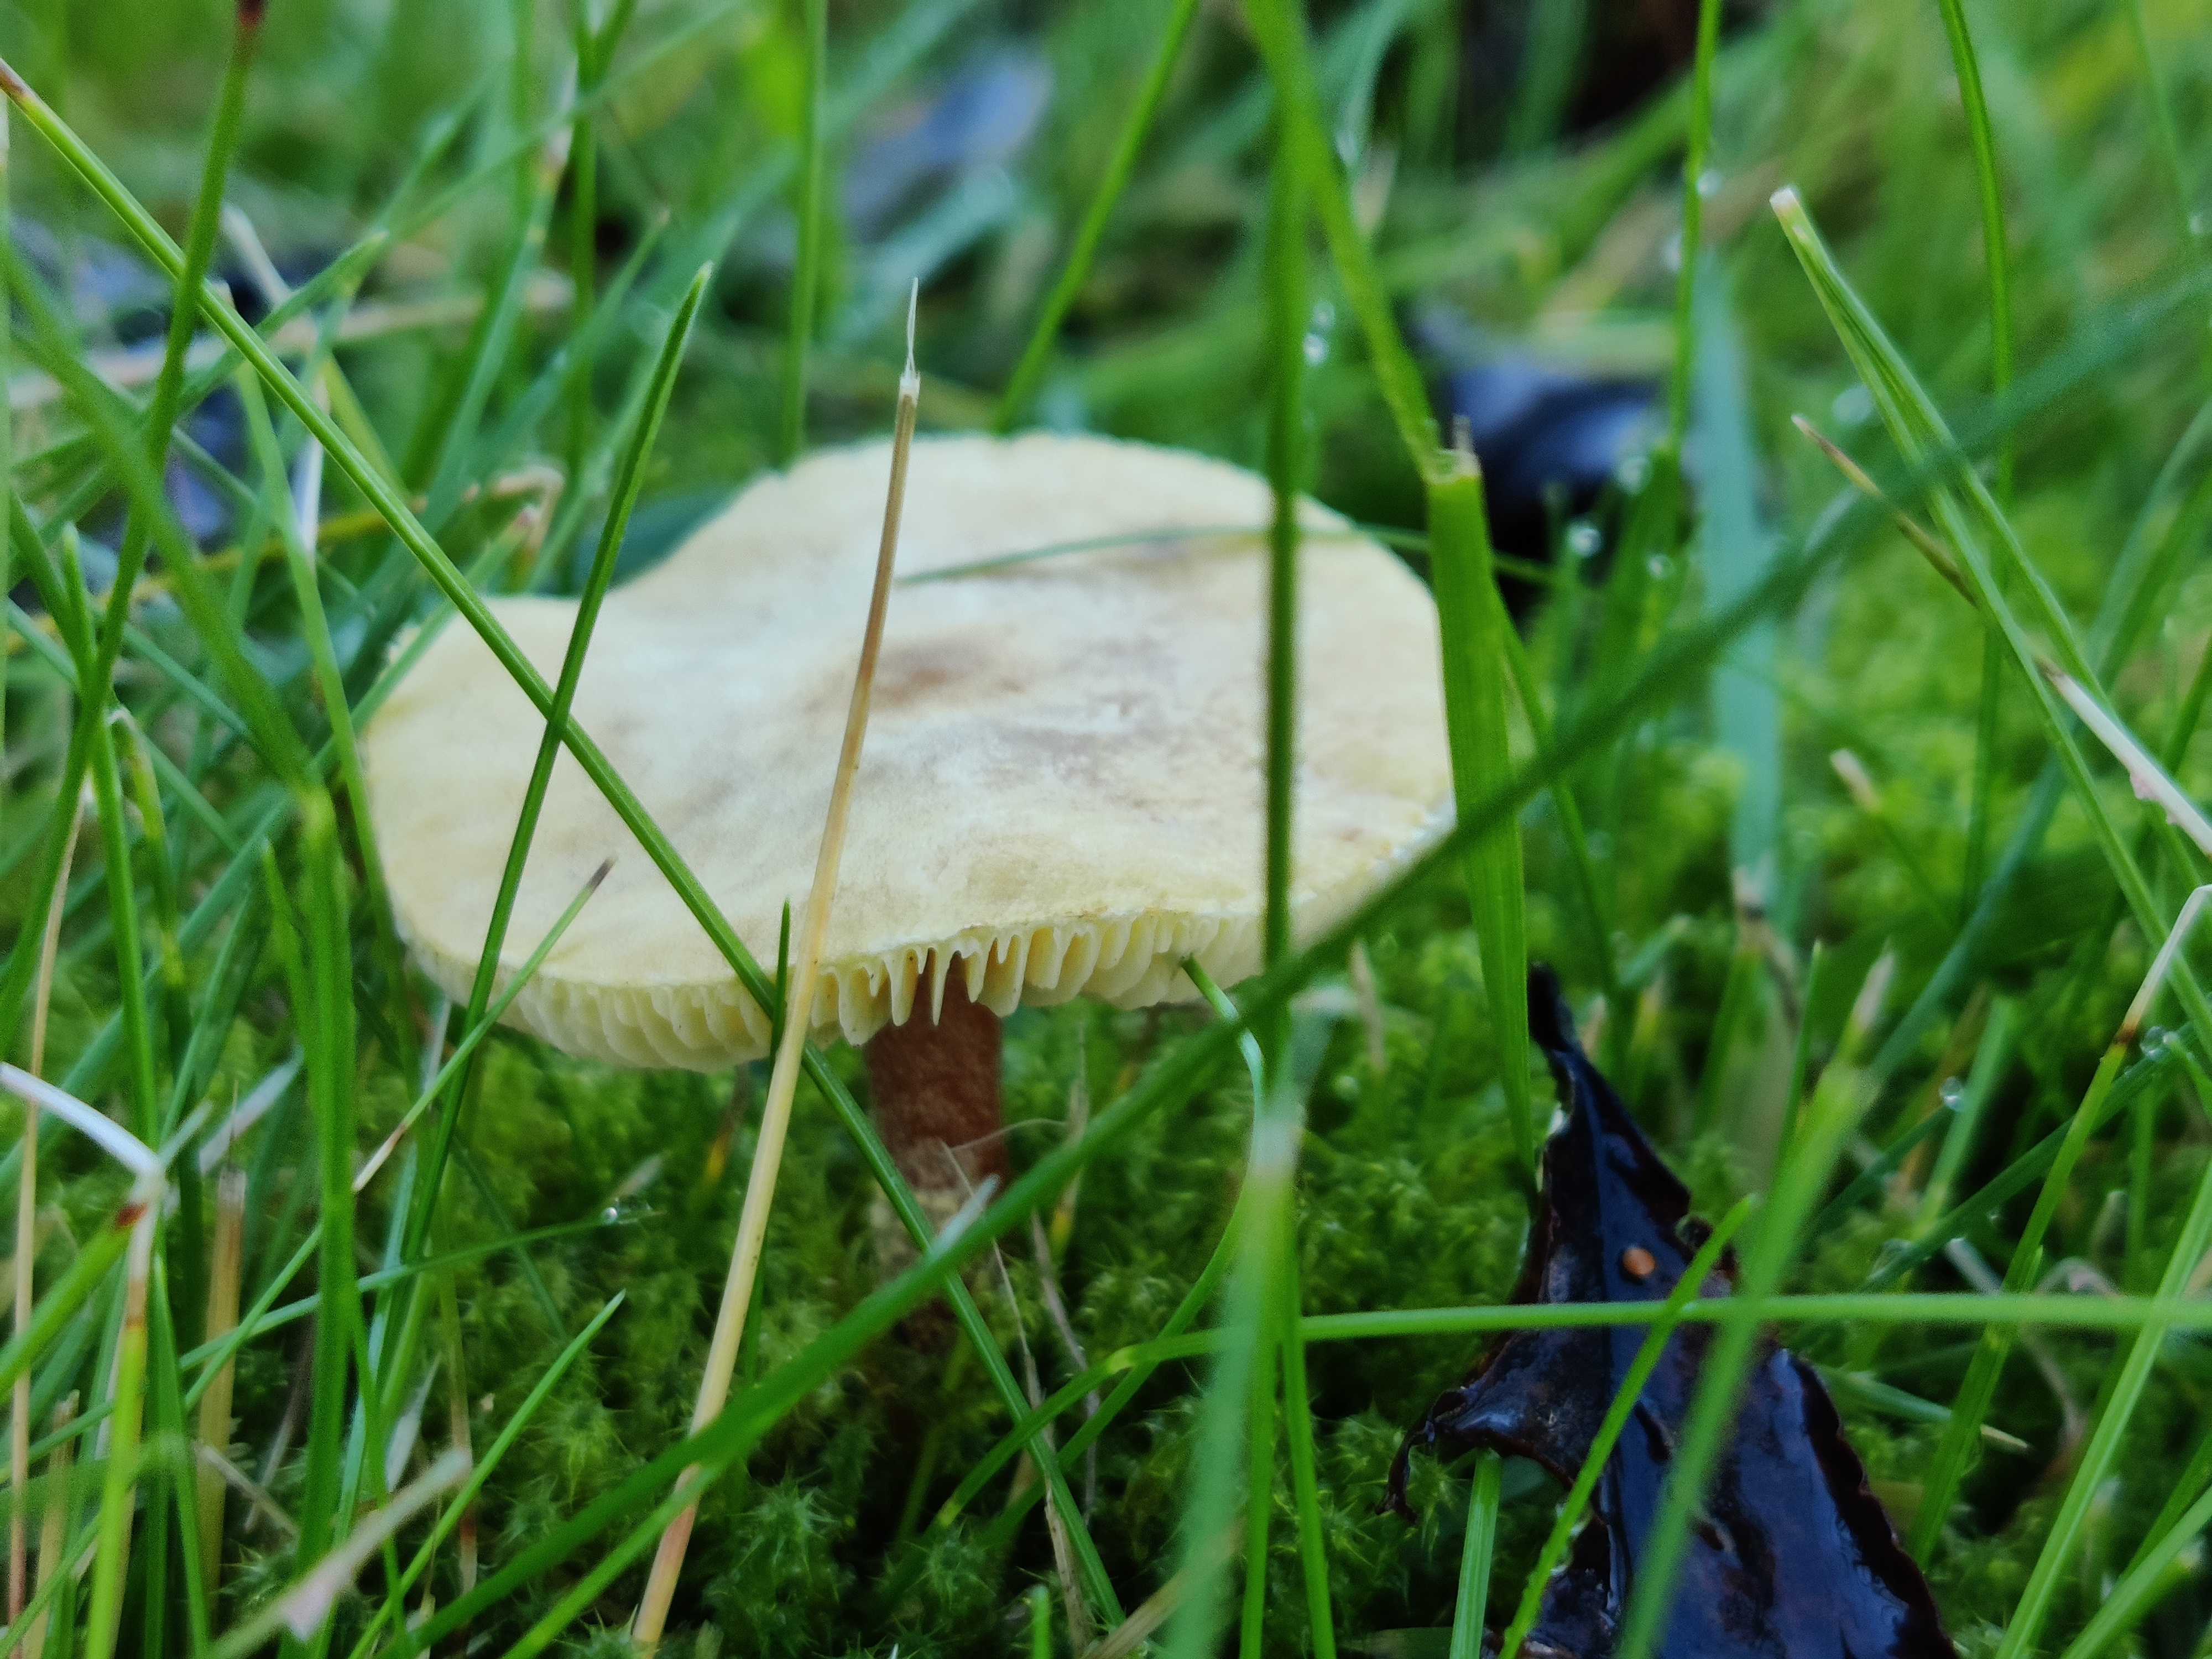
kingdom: Fungi
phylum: Basidiomycota
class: Agaricomycetes
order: Agaricales
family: Tricholomataceae
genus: Cystoderma
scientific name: Cystoderma amianthinum
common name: okkergul grynhat
